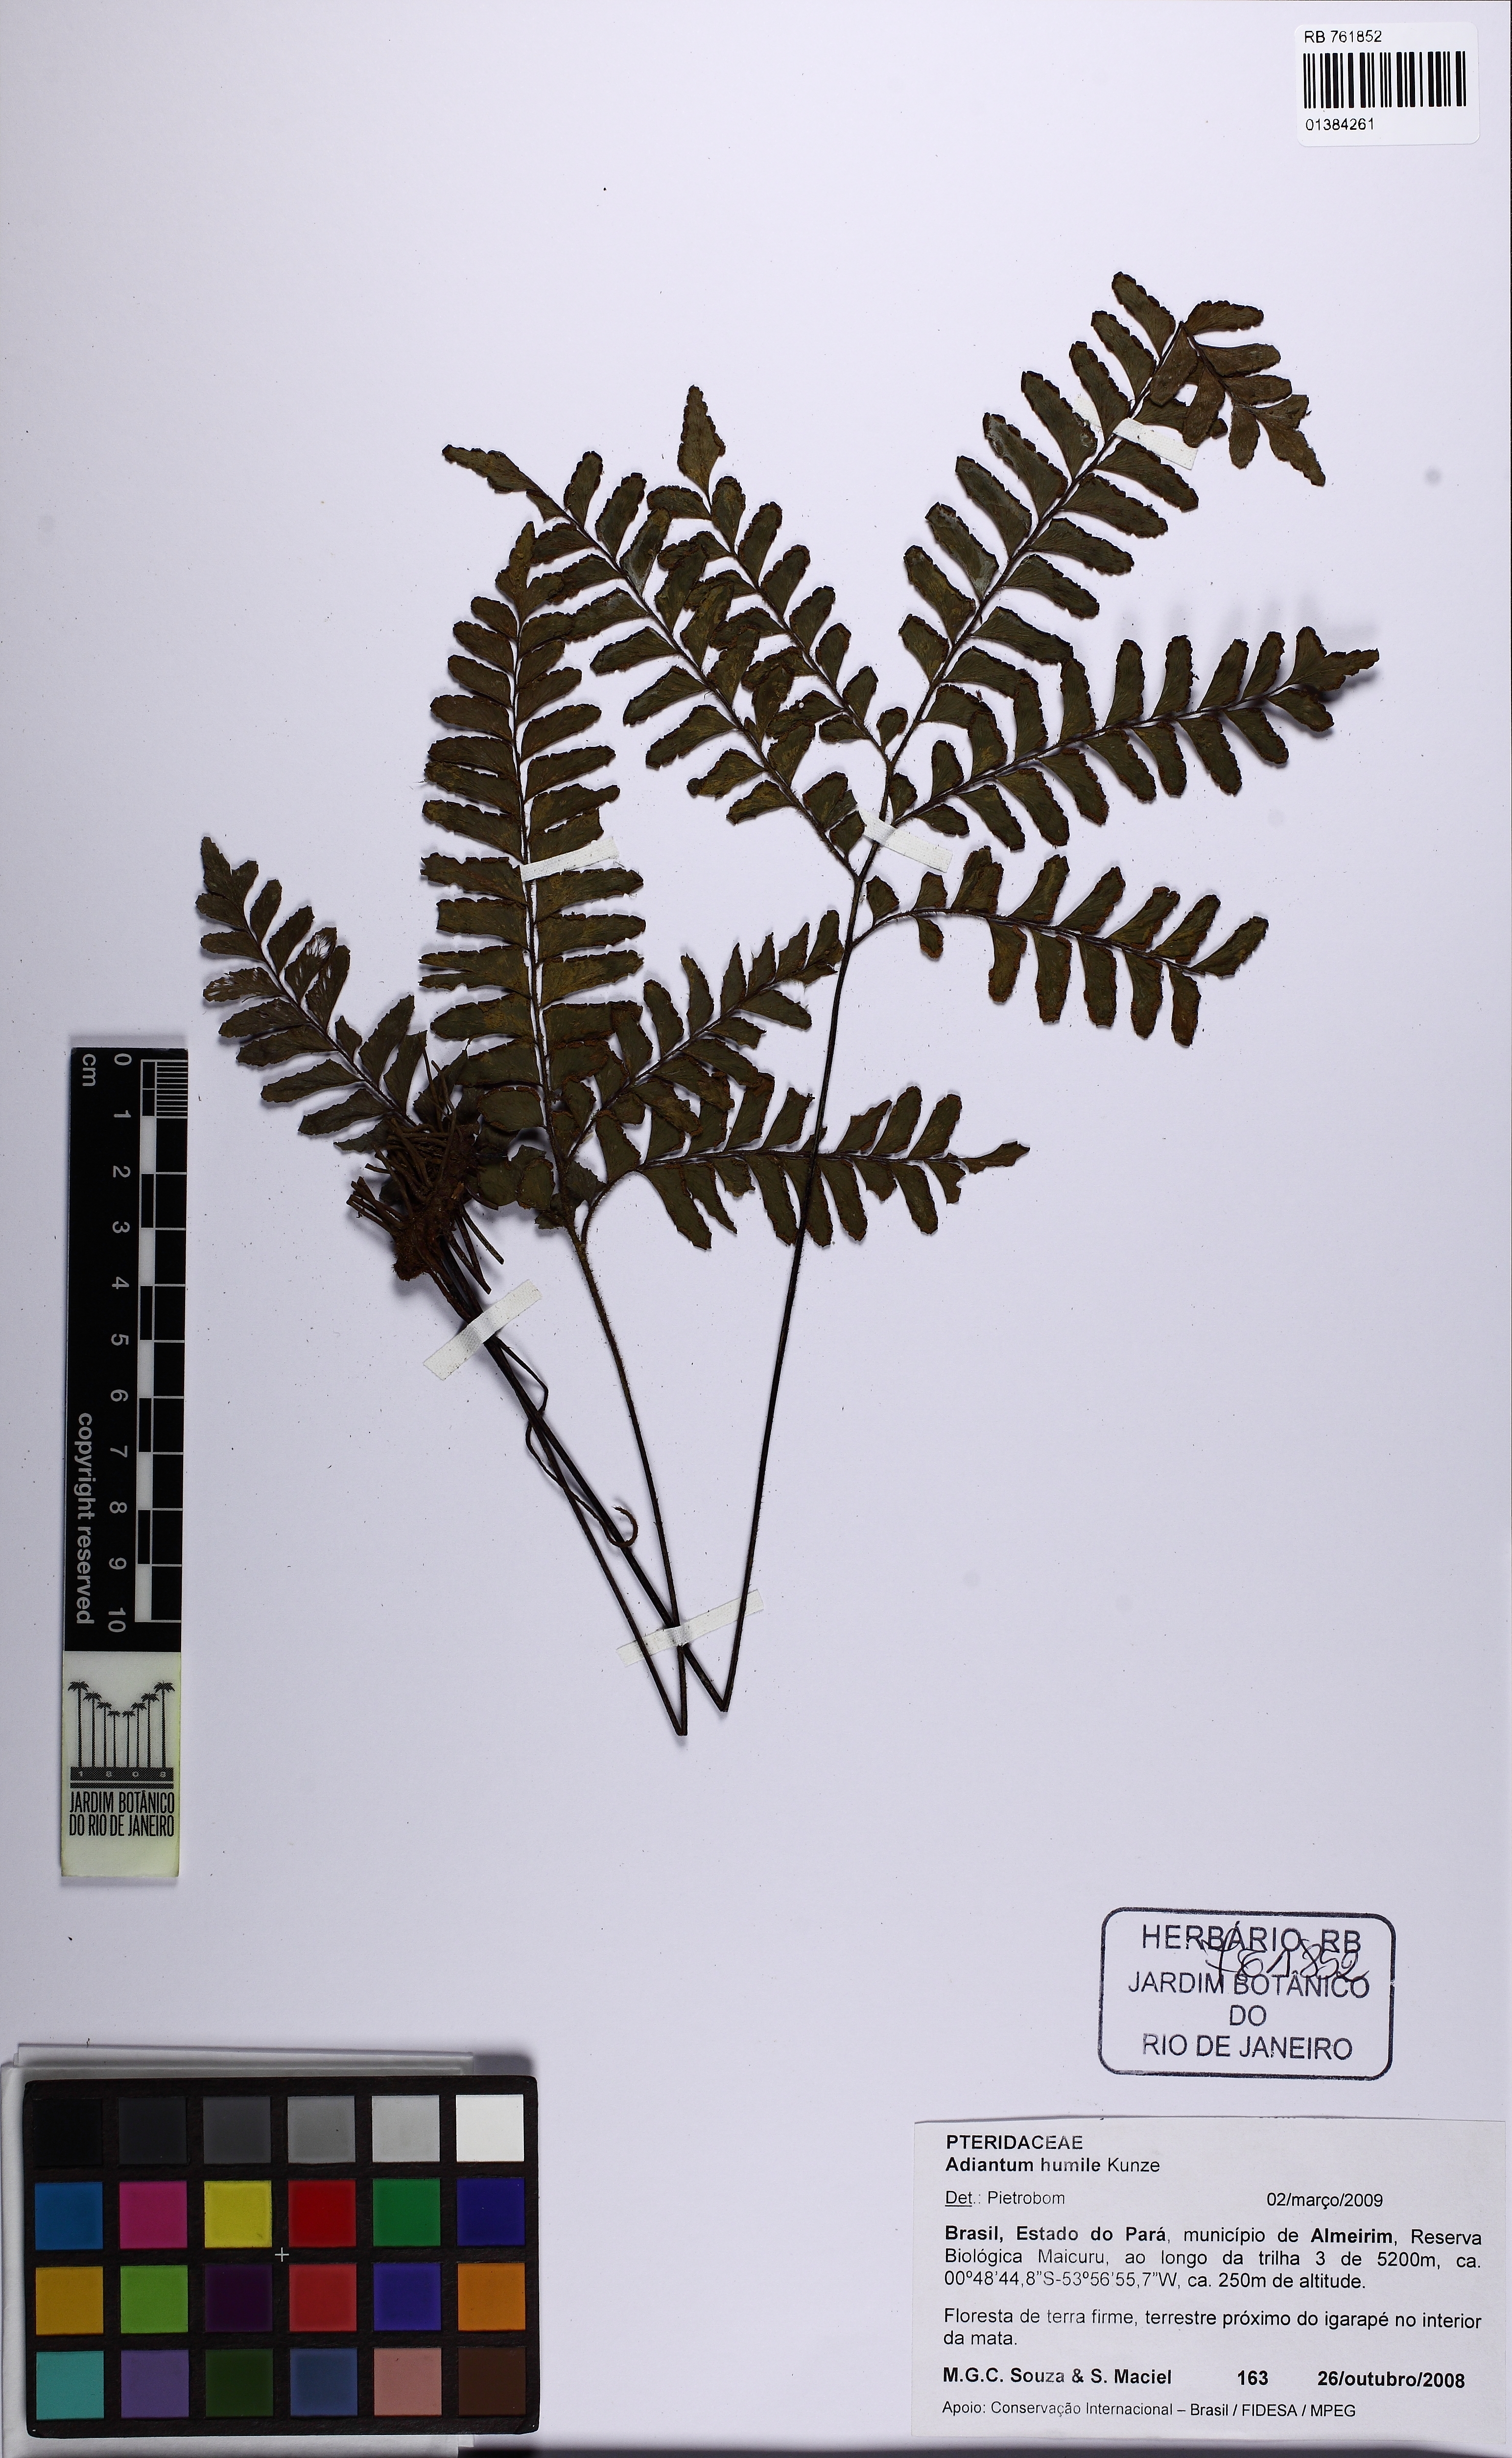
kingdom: Plantae
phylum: Tracheophyta
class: Polypodiopsida
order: Polypodiales
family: Pteridaceae
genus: Adiantum
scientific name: Adiantum humile
